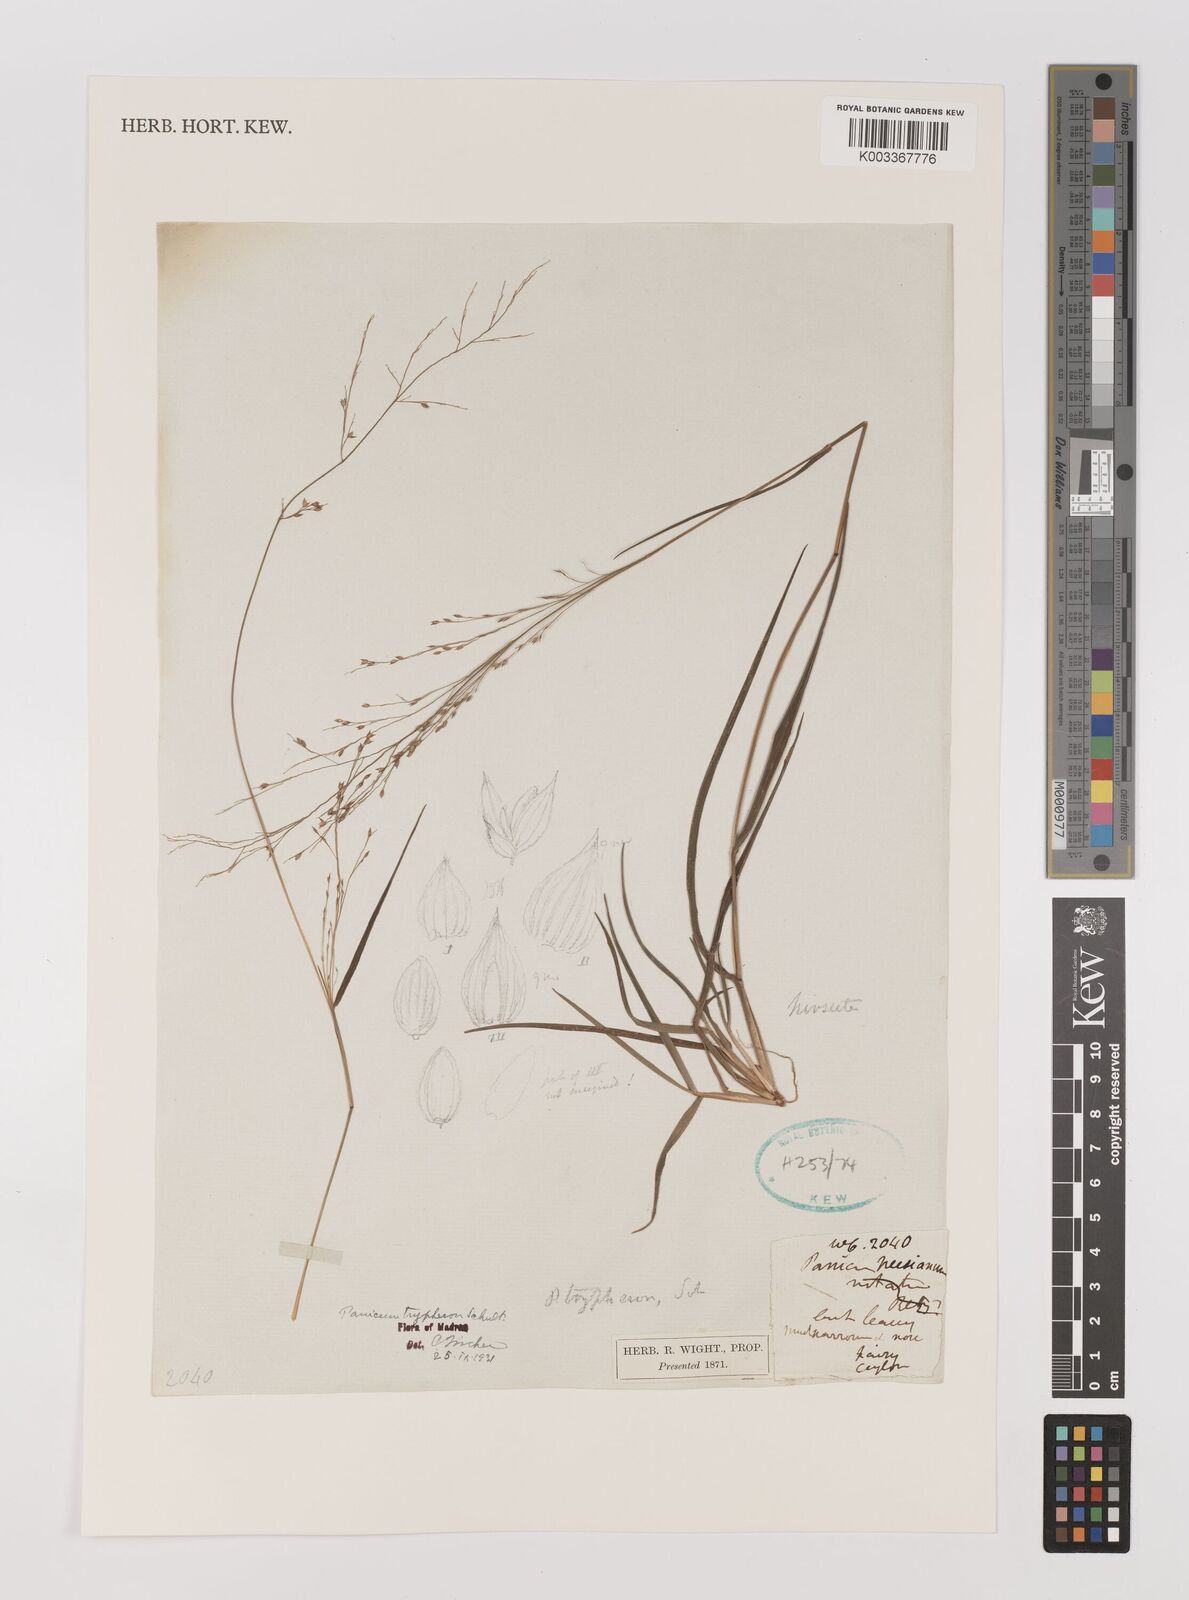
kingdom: Plantae
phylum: Tracheophyta
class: Liliopsida
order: Poales
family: Poaceae
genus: Panicum
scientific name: Panicum curviflorum
